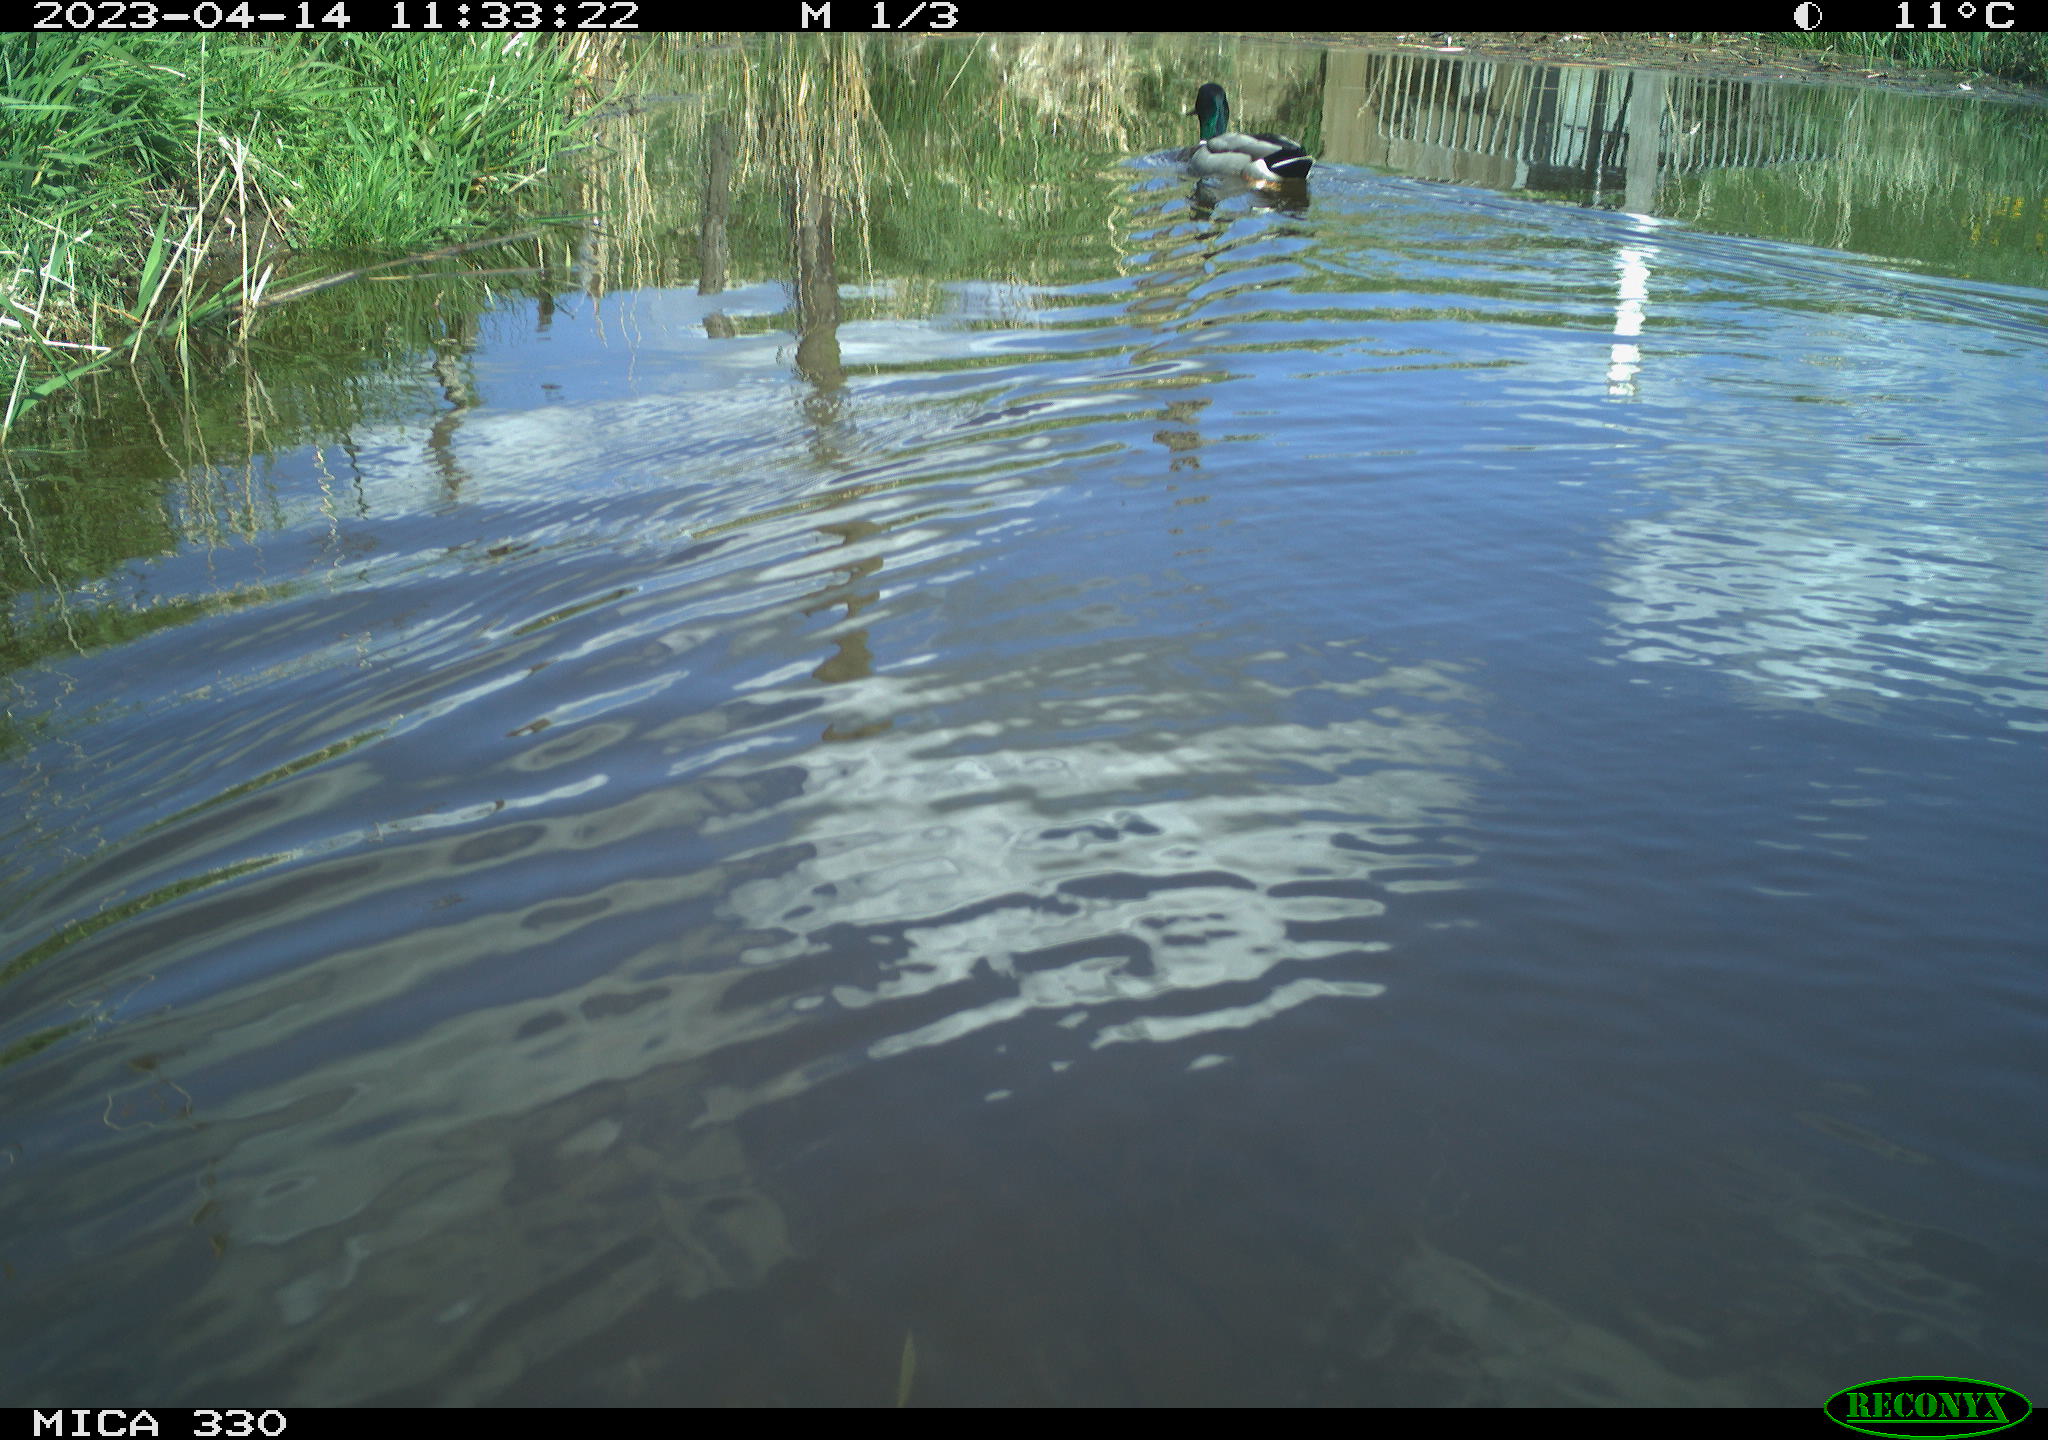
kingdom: Animalia
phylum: Chordata
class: Aves
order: Anseriformes
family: Anatidae
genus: Anas
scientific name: Anas platyrhynchos
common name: Mallard
